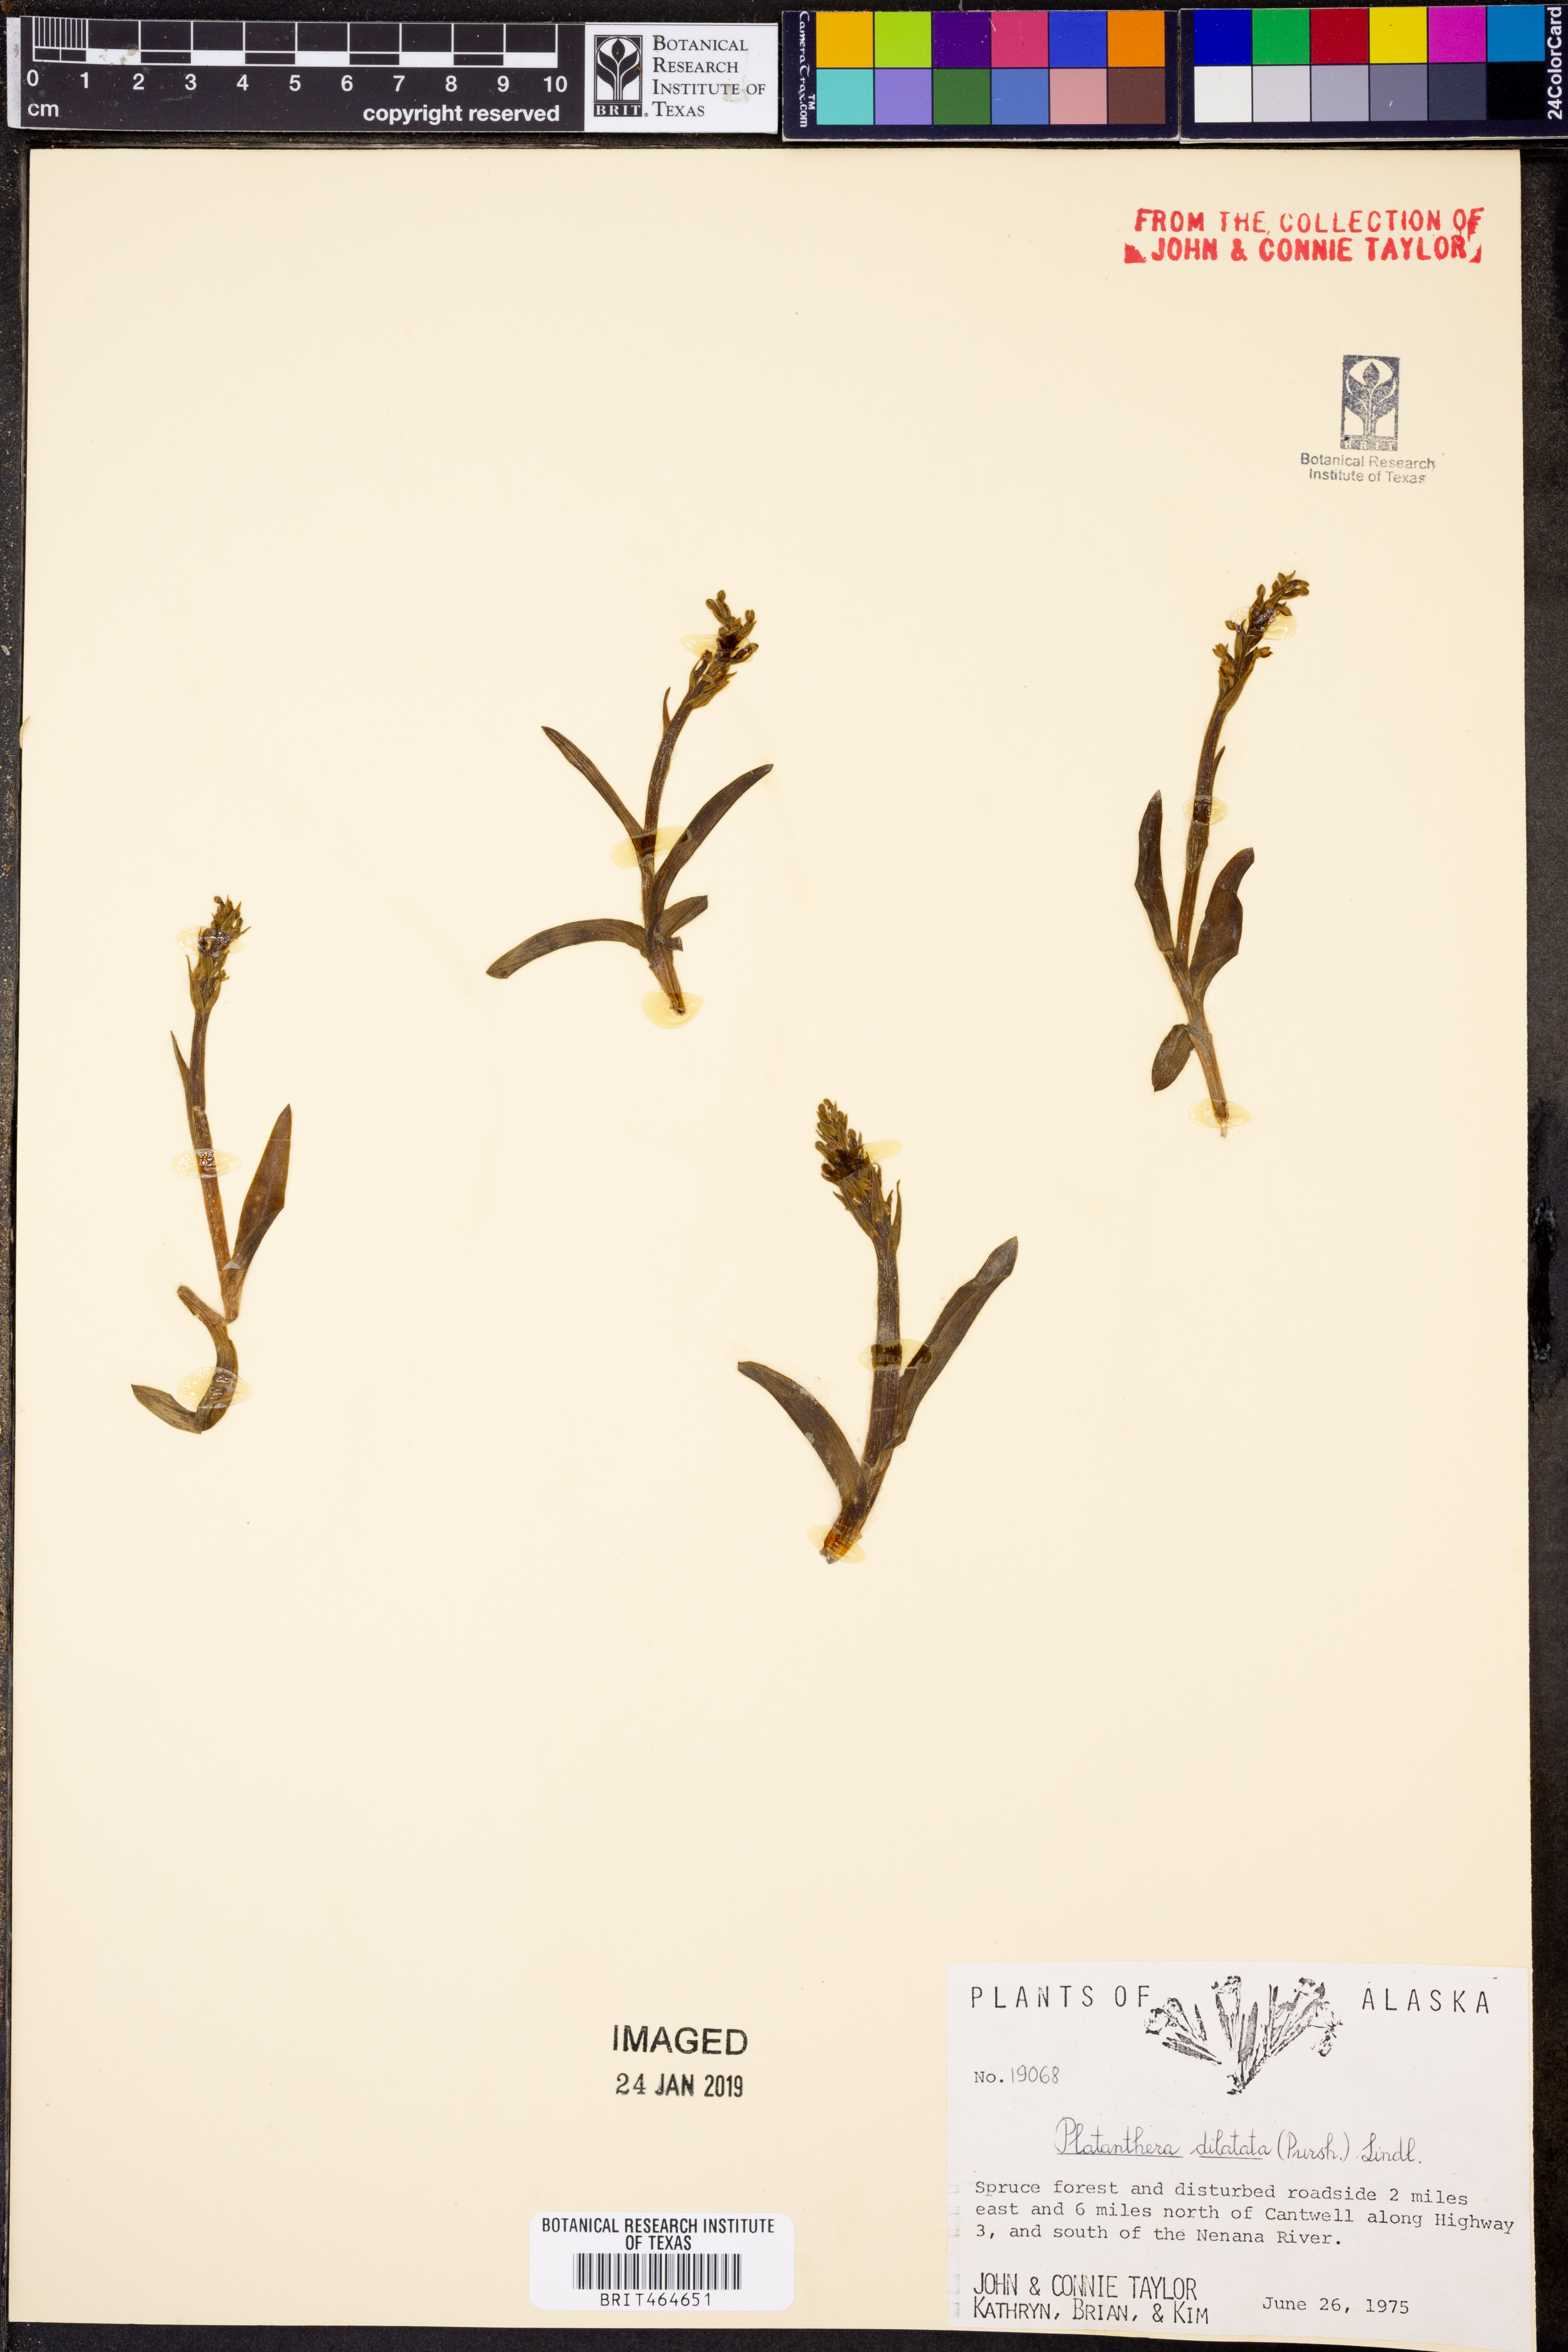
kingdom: Plantae
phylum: Tracheophyta
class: Liliopsida
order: Asparagales
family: Orchidaceae
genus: Platanthera
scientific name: Platanthera dilatata
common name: Bog candles
